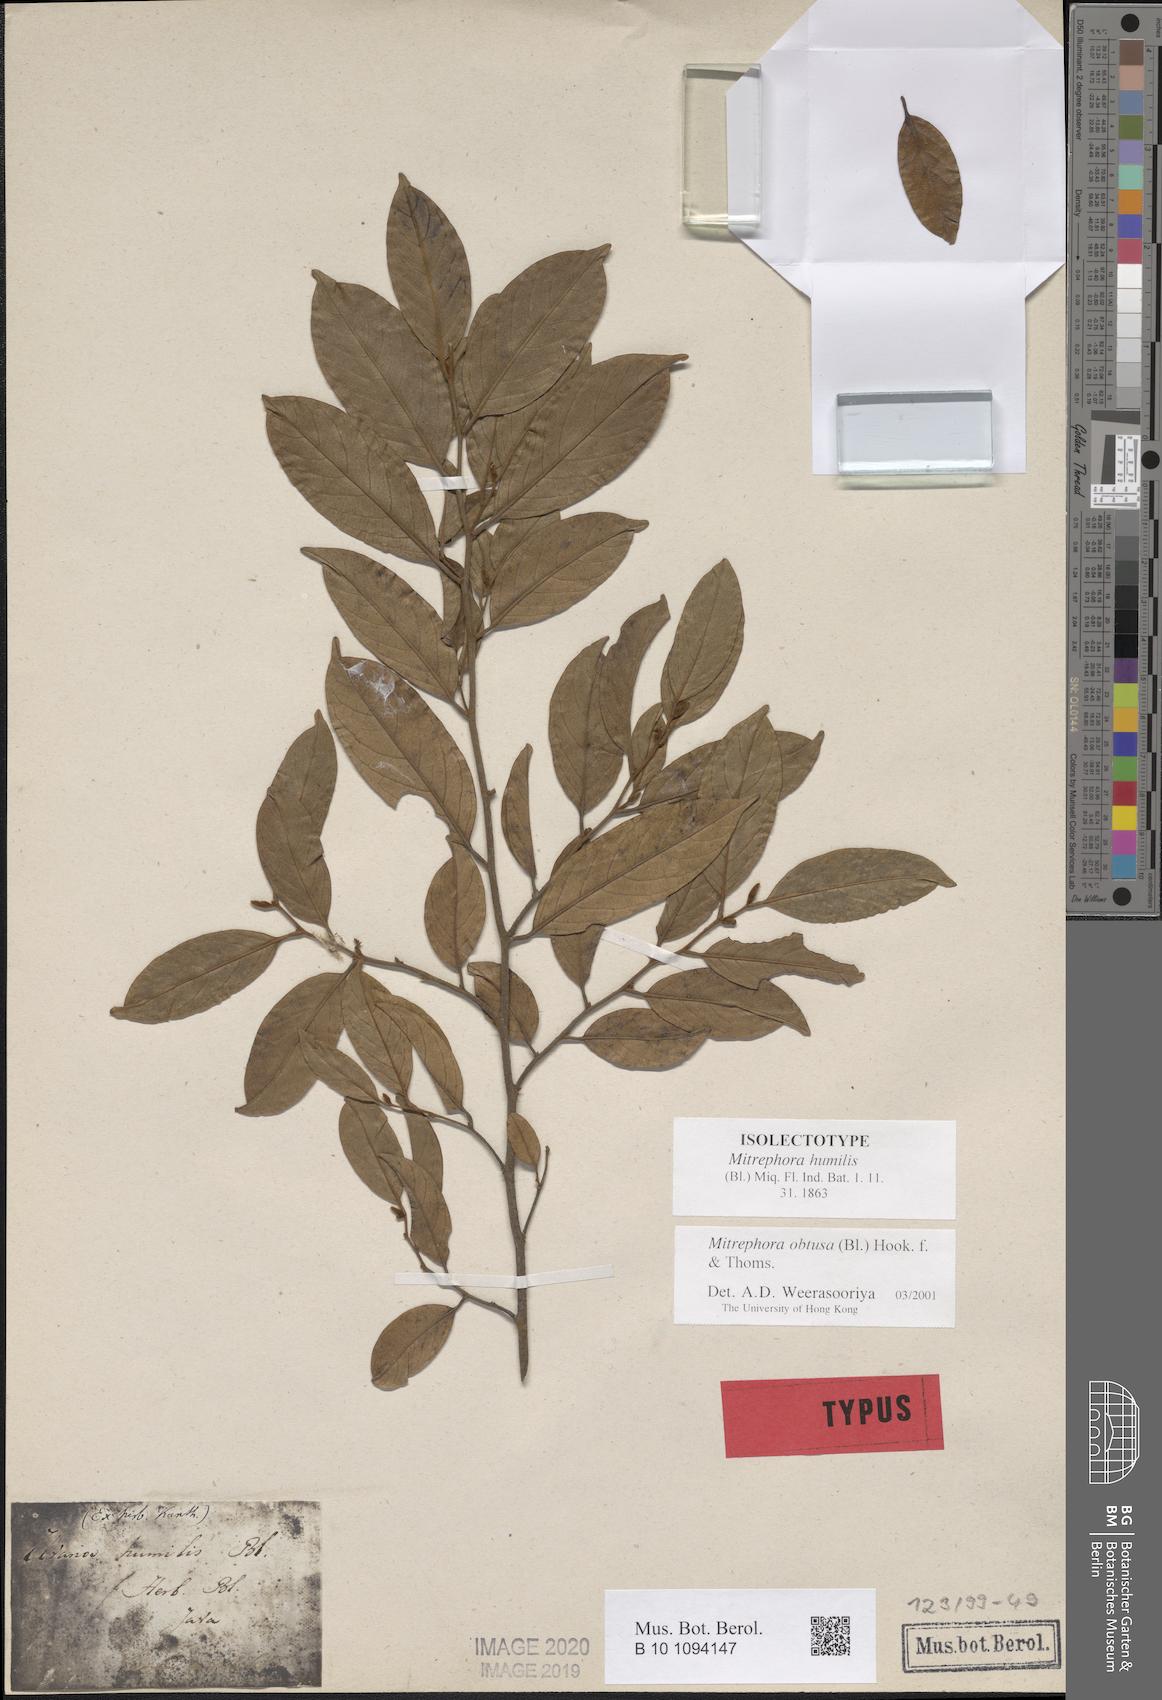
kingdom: Plantae
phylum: Tracheophyta
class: Magnoliopsida
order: Magnoliales
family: Annonaceae
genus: Mitrephora
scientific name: Mitrephora obtusa
